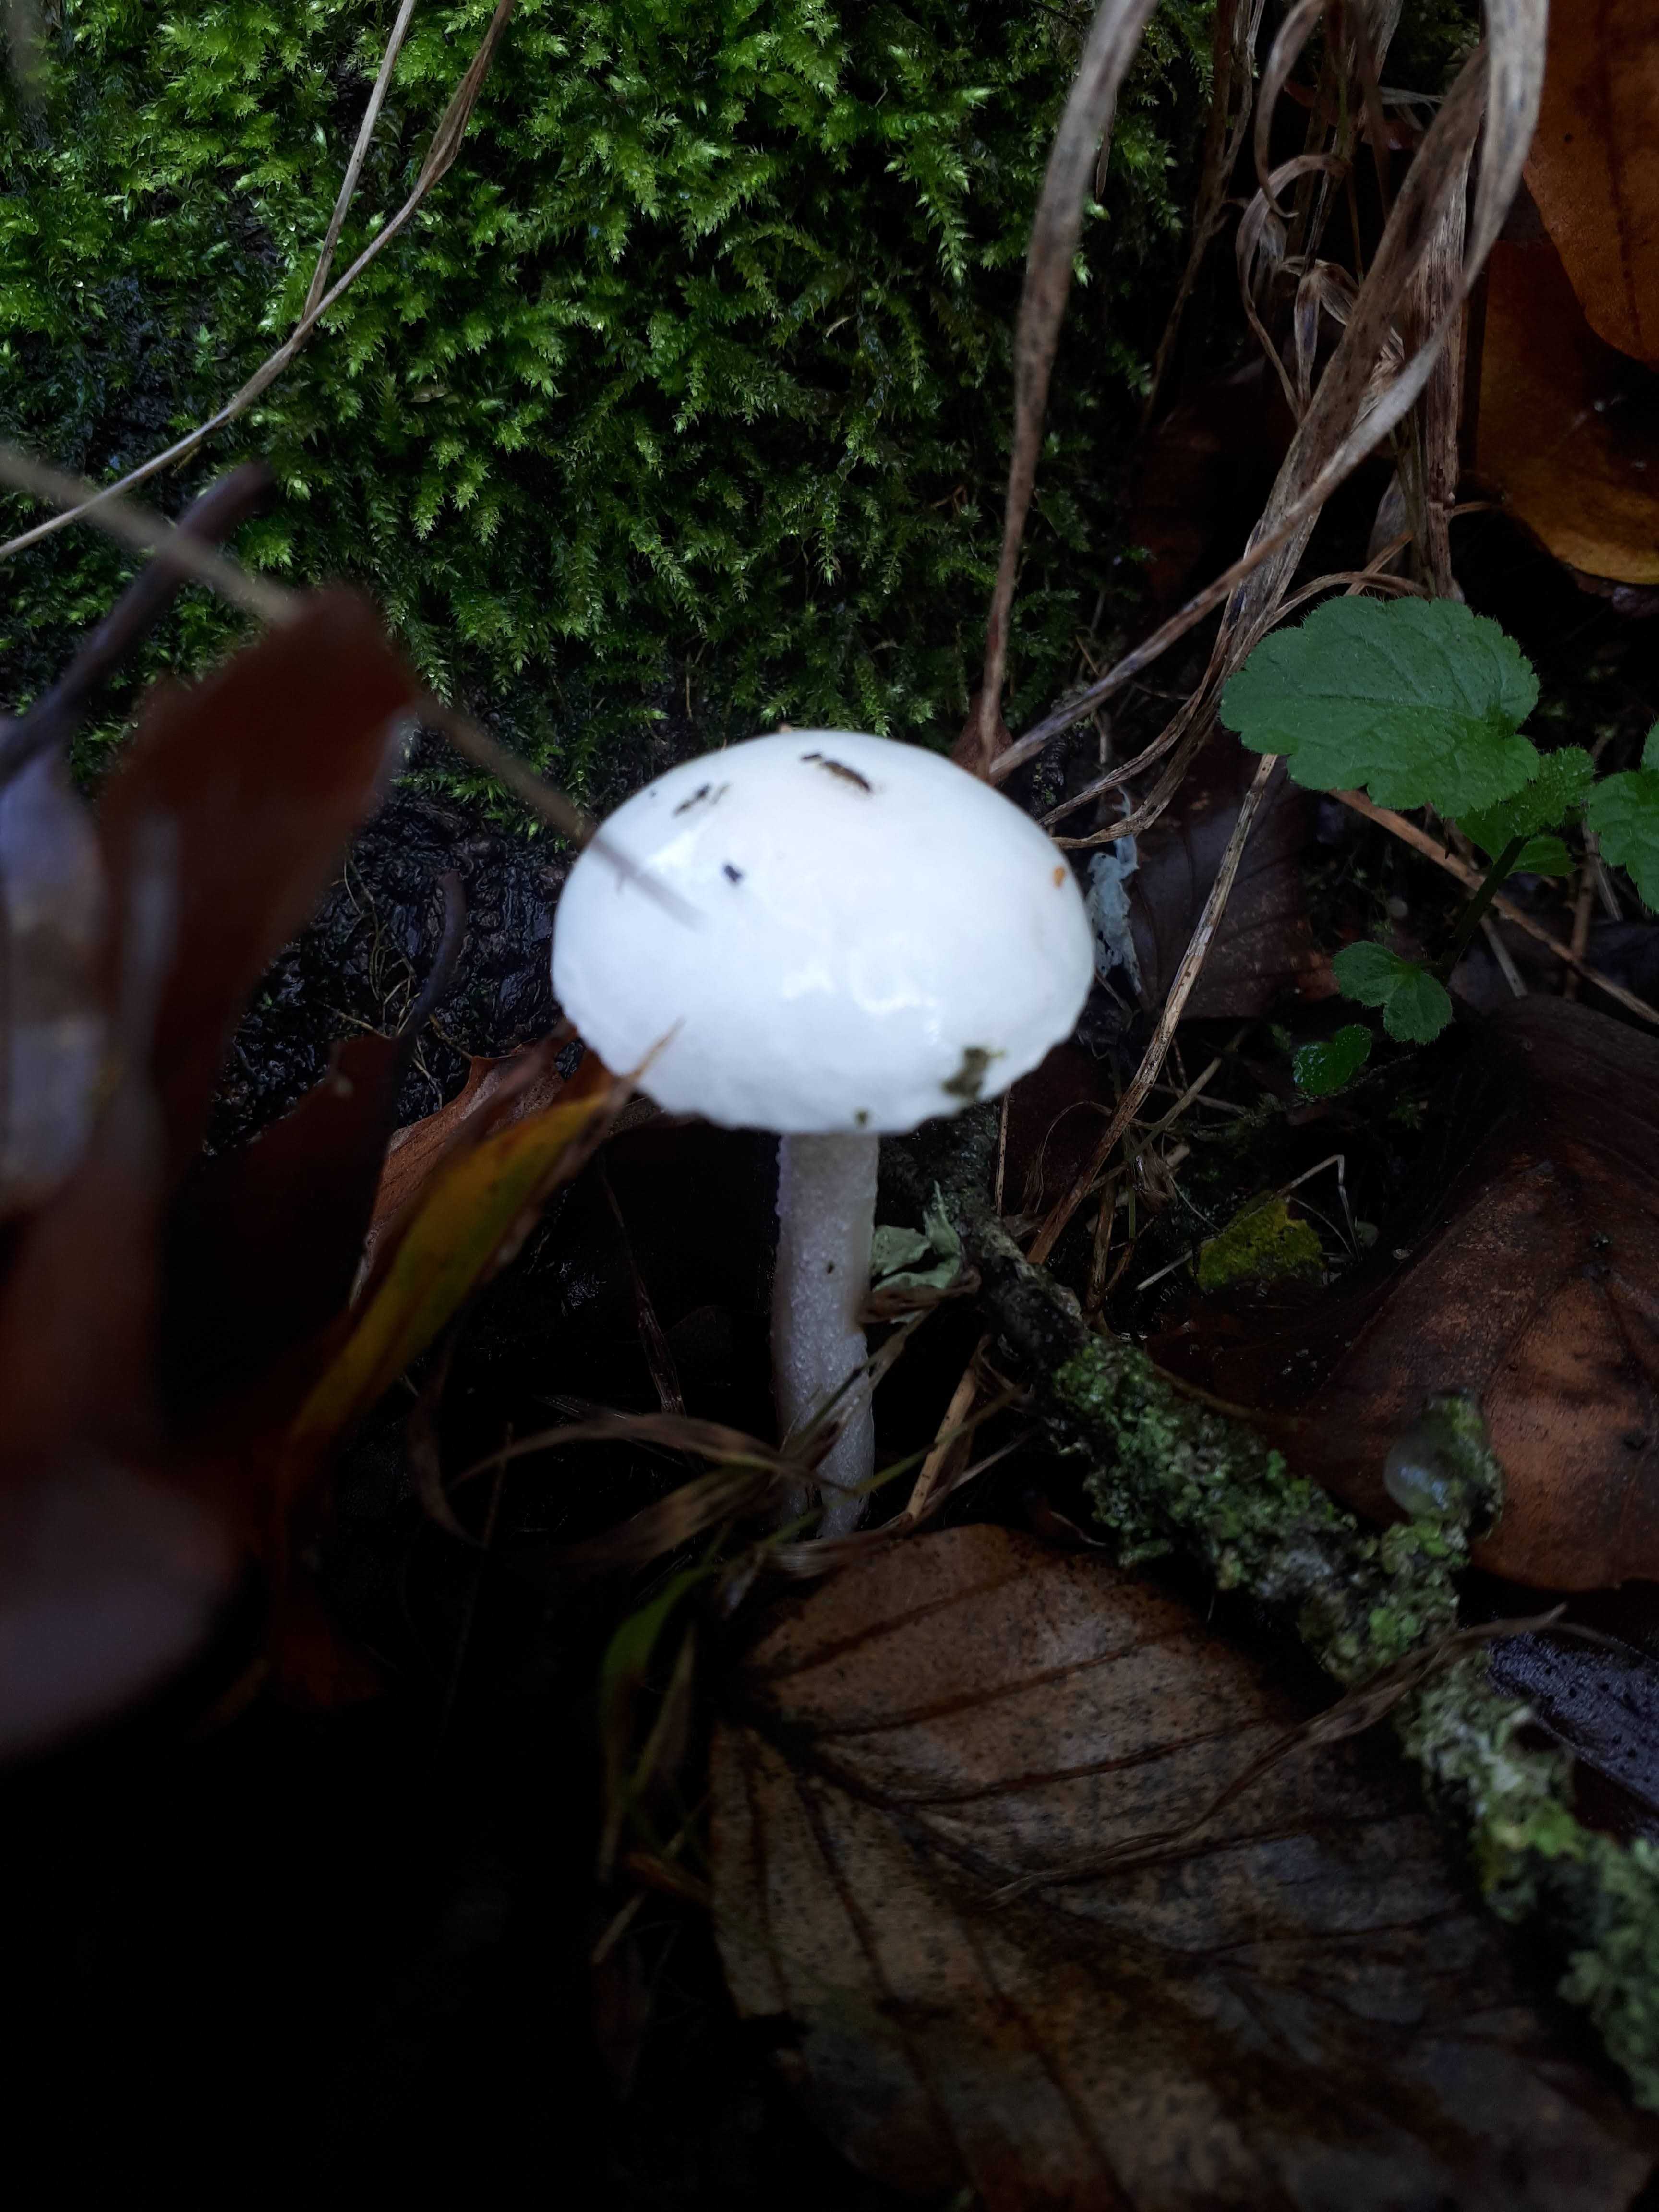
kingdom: Fungi
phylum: Basidiomycota
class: Agaricomycetes
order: Agaricales
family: Hygrophoraceae
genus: Hygrophorus
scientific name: Hygrophorus eburneus
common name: elfenbens-sneglehat
